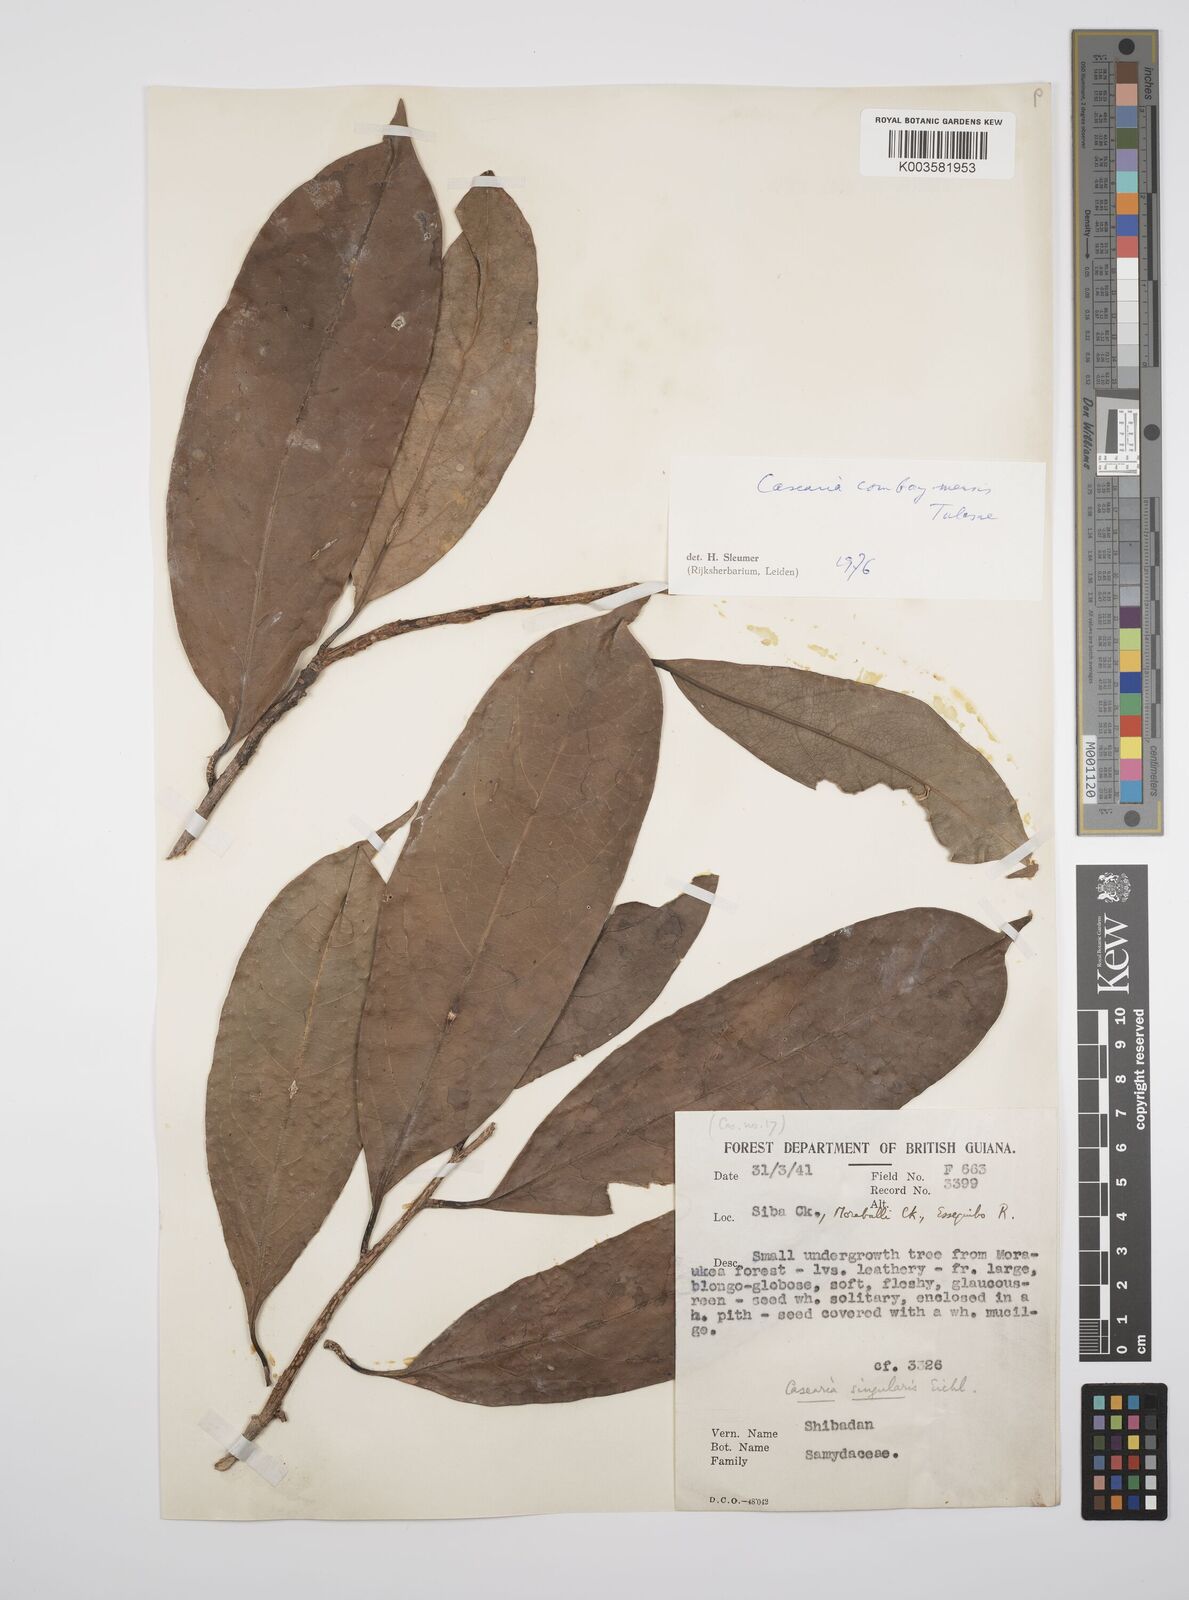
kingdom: Plantae
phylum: Tracheophyta
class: Magnoliopsida
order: Malpighiales
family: Salicaceae
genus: Casearia
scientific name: Casearia combaymensis
